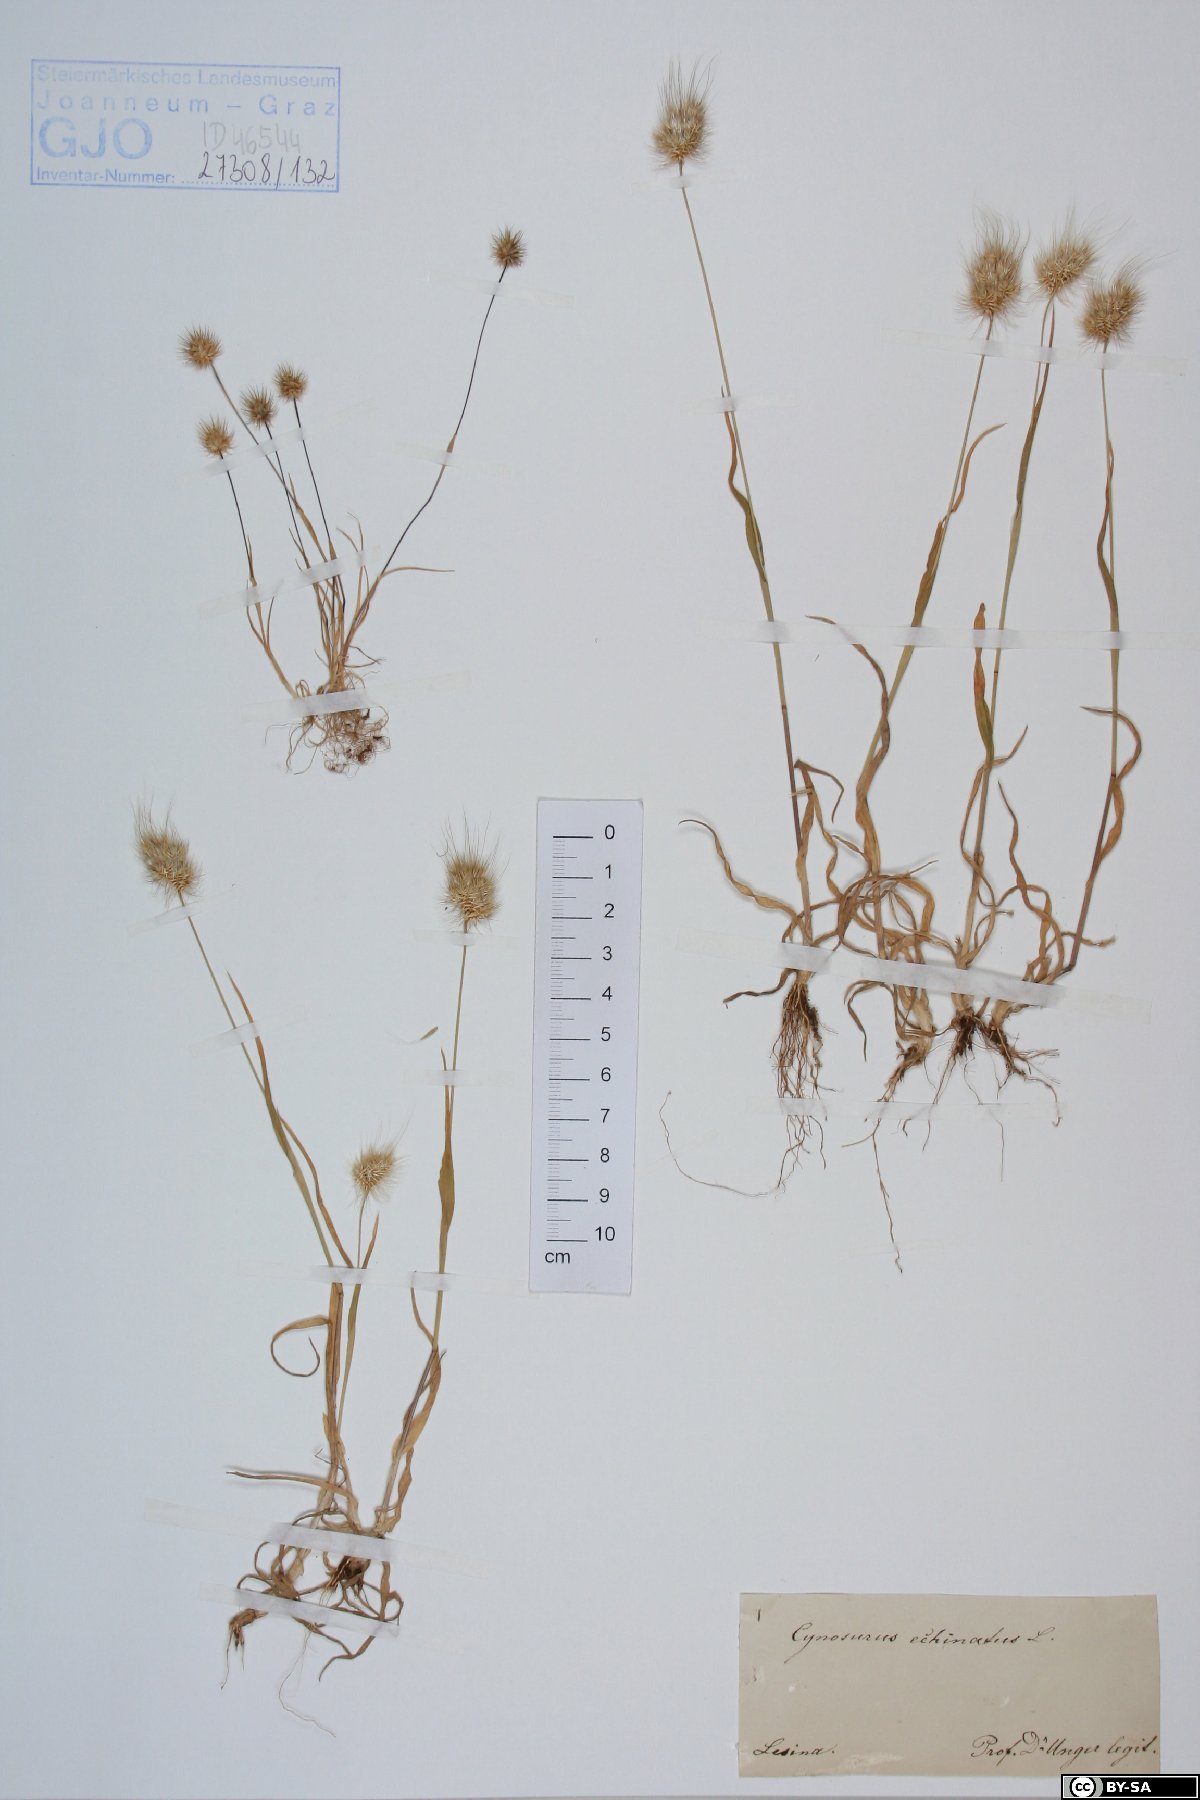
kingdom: Plantae
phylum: Tracheophyta
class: Liliopsida
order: Poales
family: Poaceae
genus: Cynosurus
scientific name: Cynosurus echinatus
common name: Rough dog's-tail
